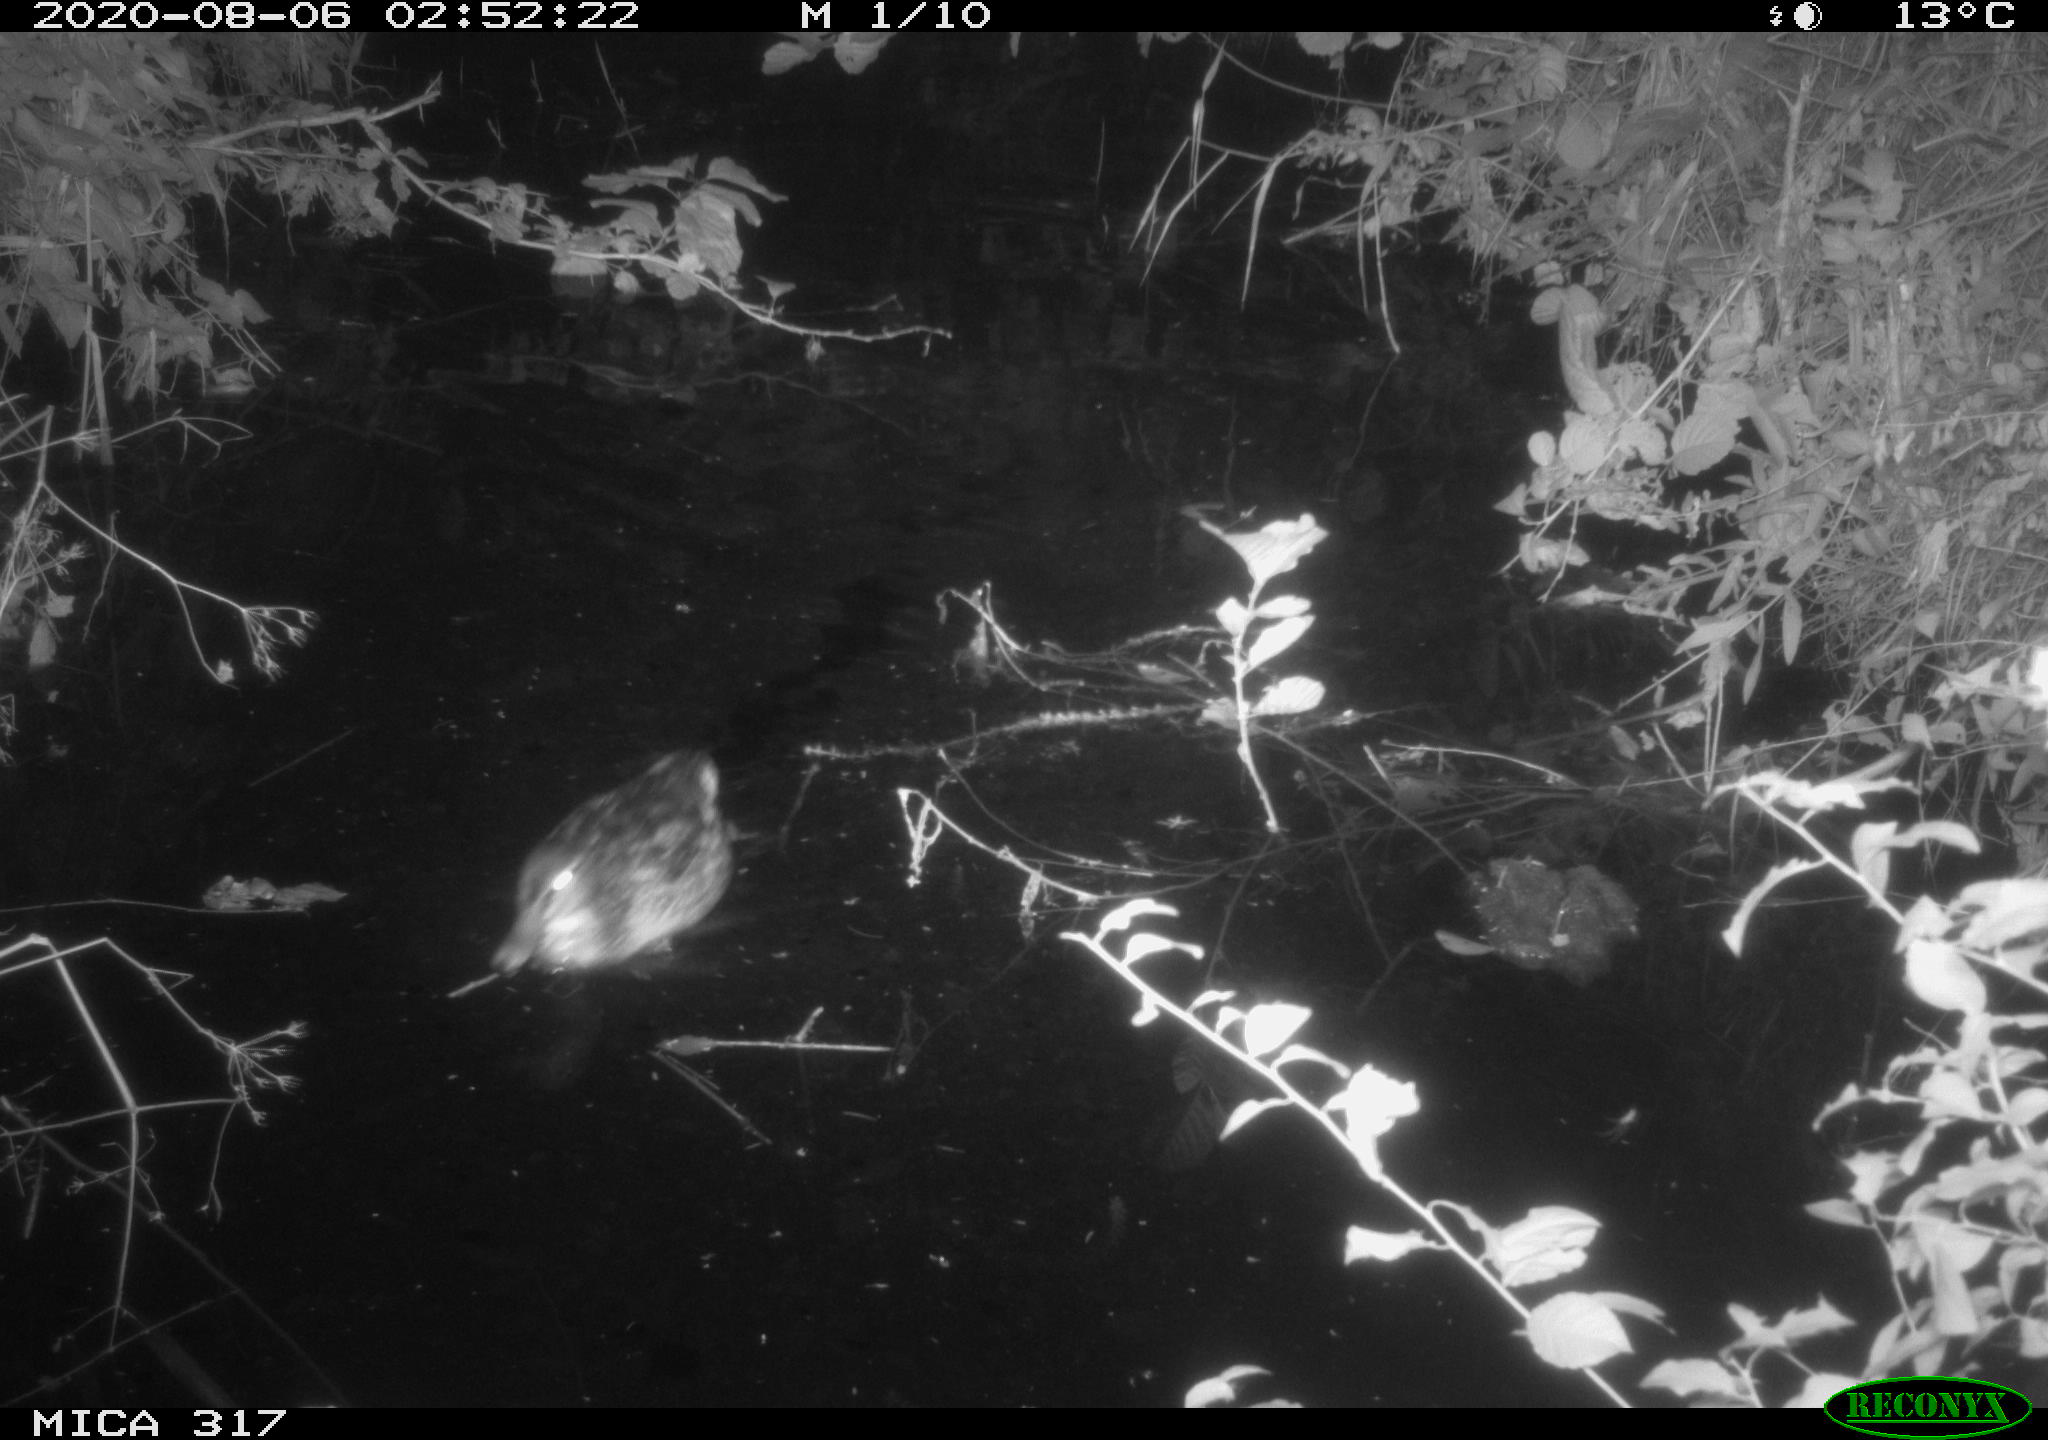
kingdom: Animalia
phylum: Chordata
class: Aves
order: Anseriformes
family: Anatidae
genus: Anas
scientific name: Anas platyrhynchos
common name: Mallard
